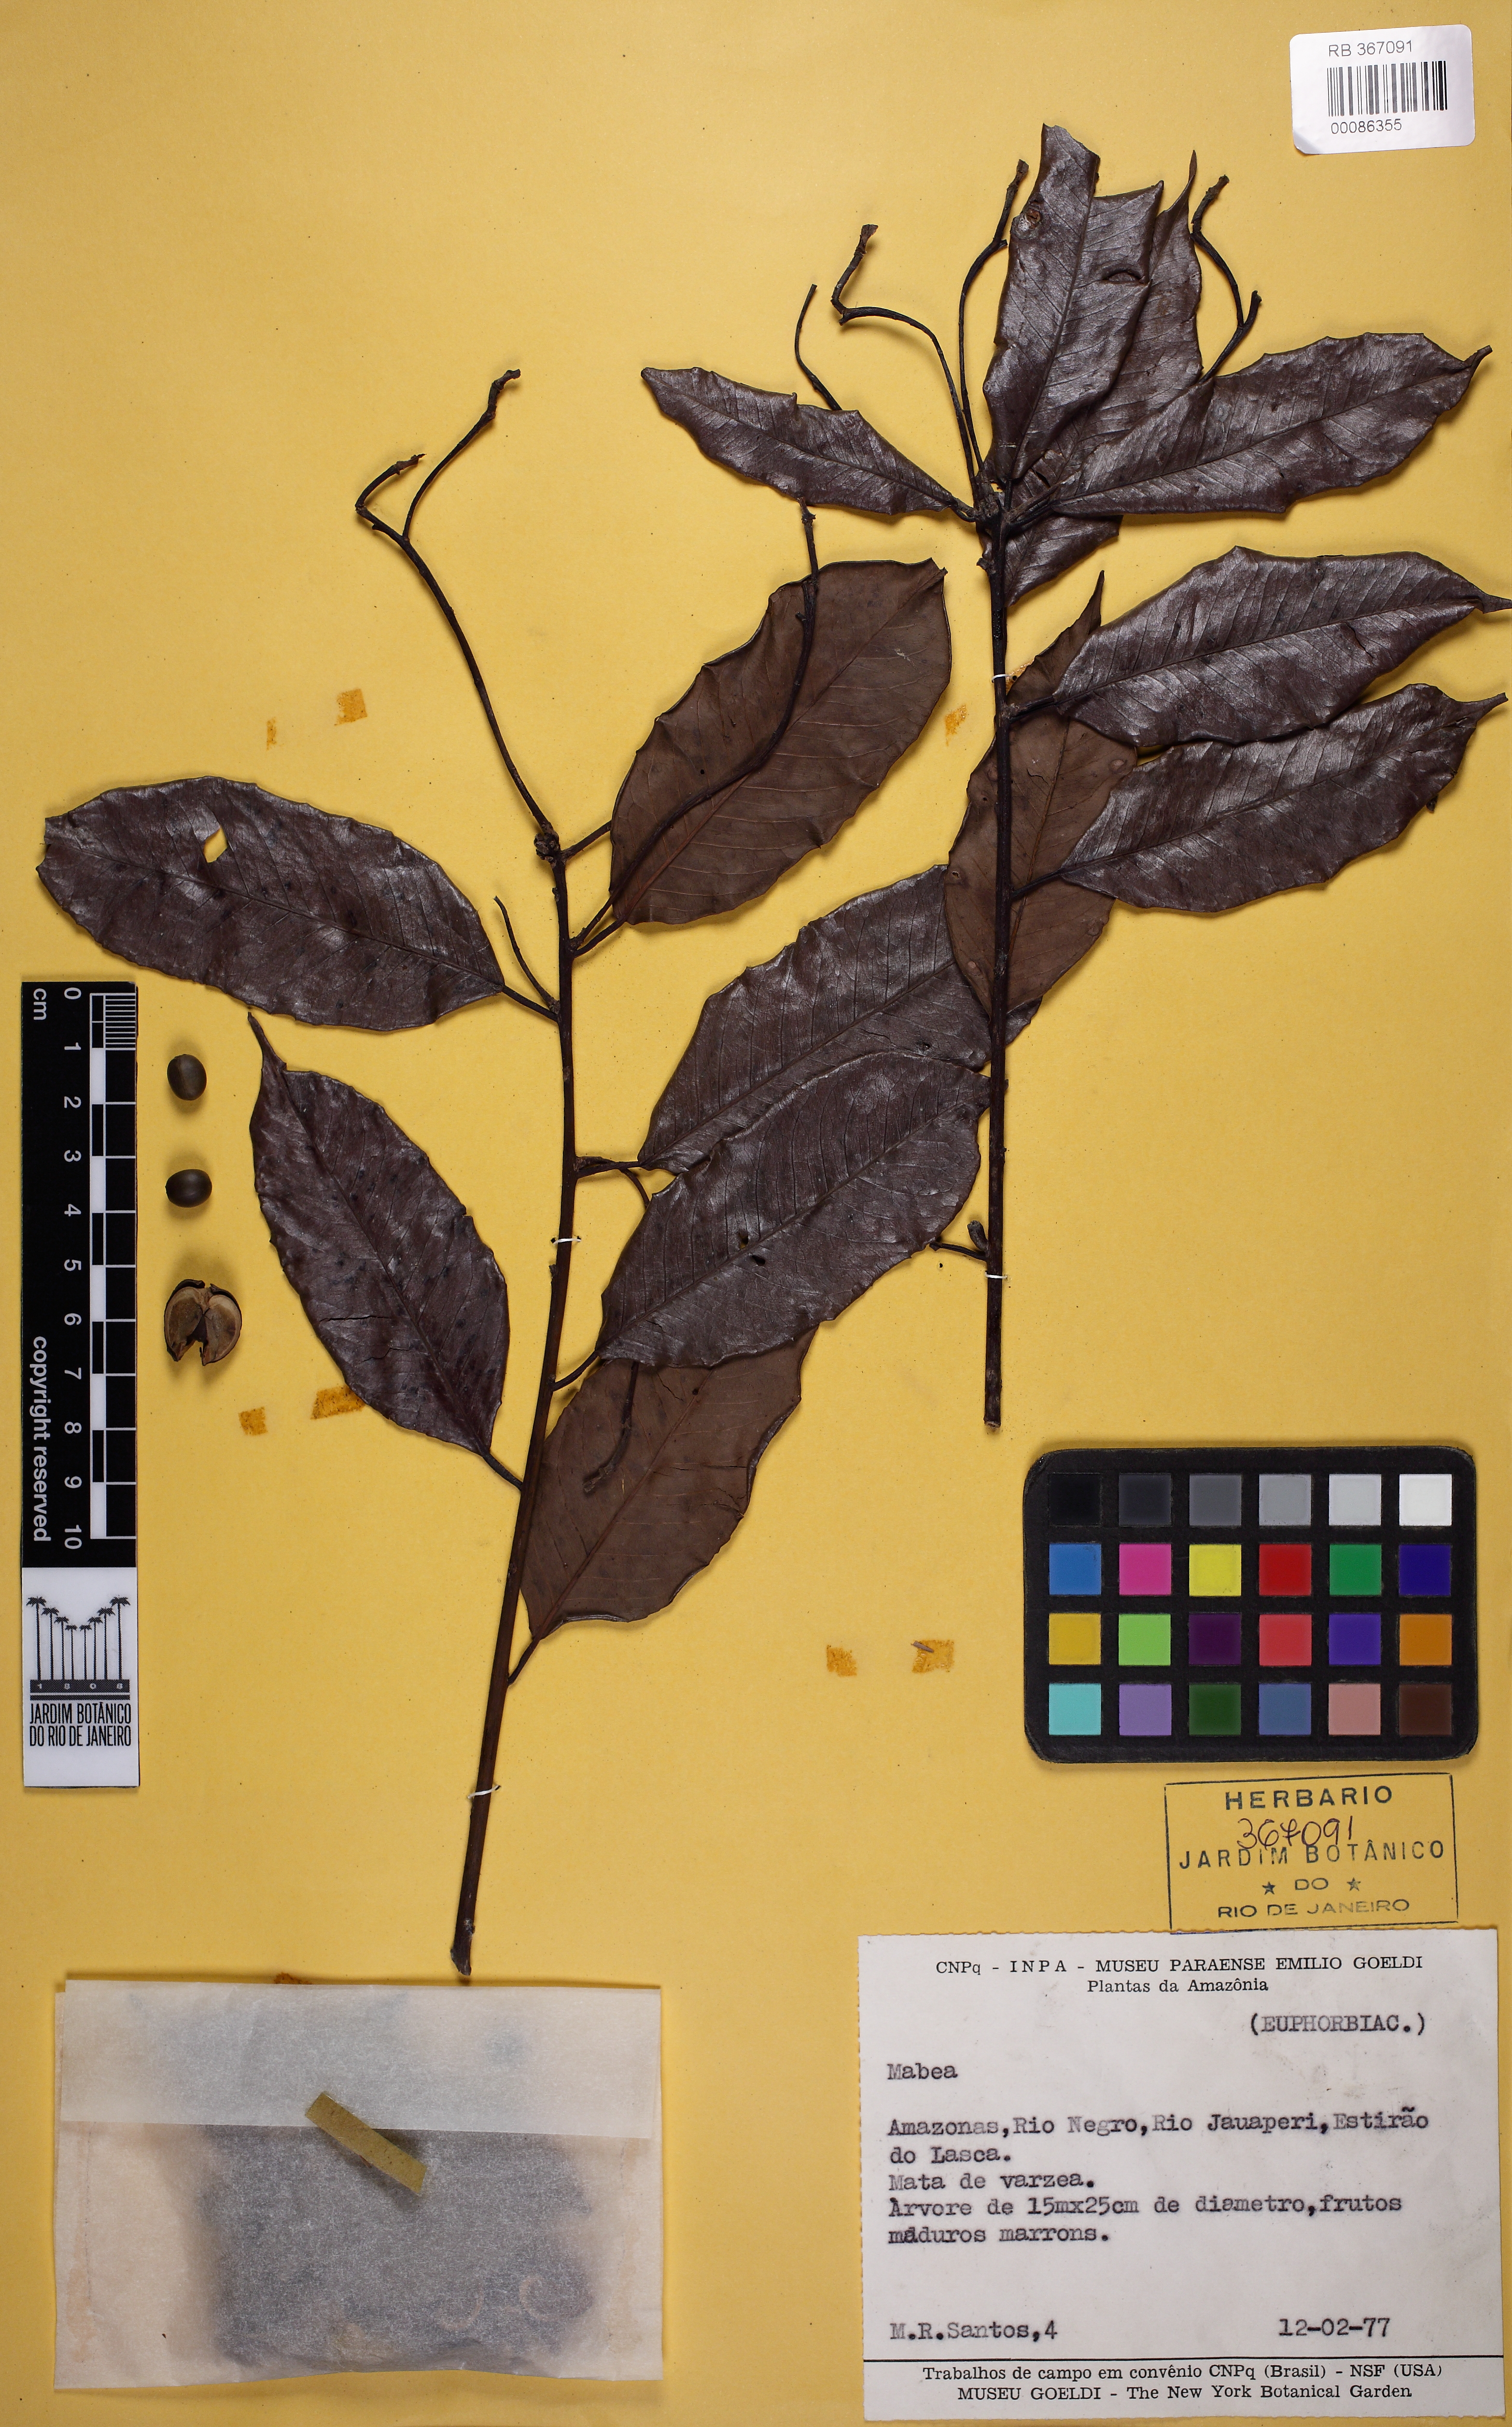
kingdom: Plantae
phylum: Tracheophyta
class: Magnoliopsida
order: Malpighiales
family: Euphorbiaceae
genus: Mabea
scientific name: Mabea
